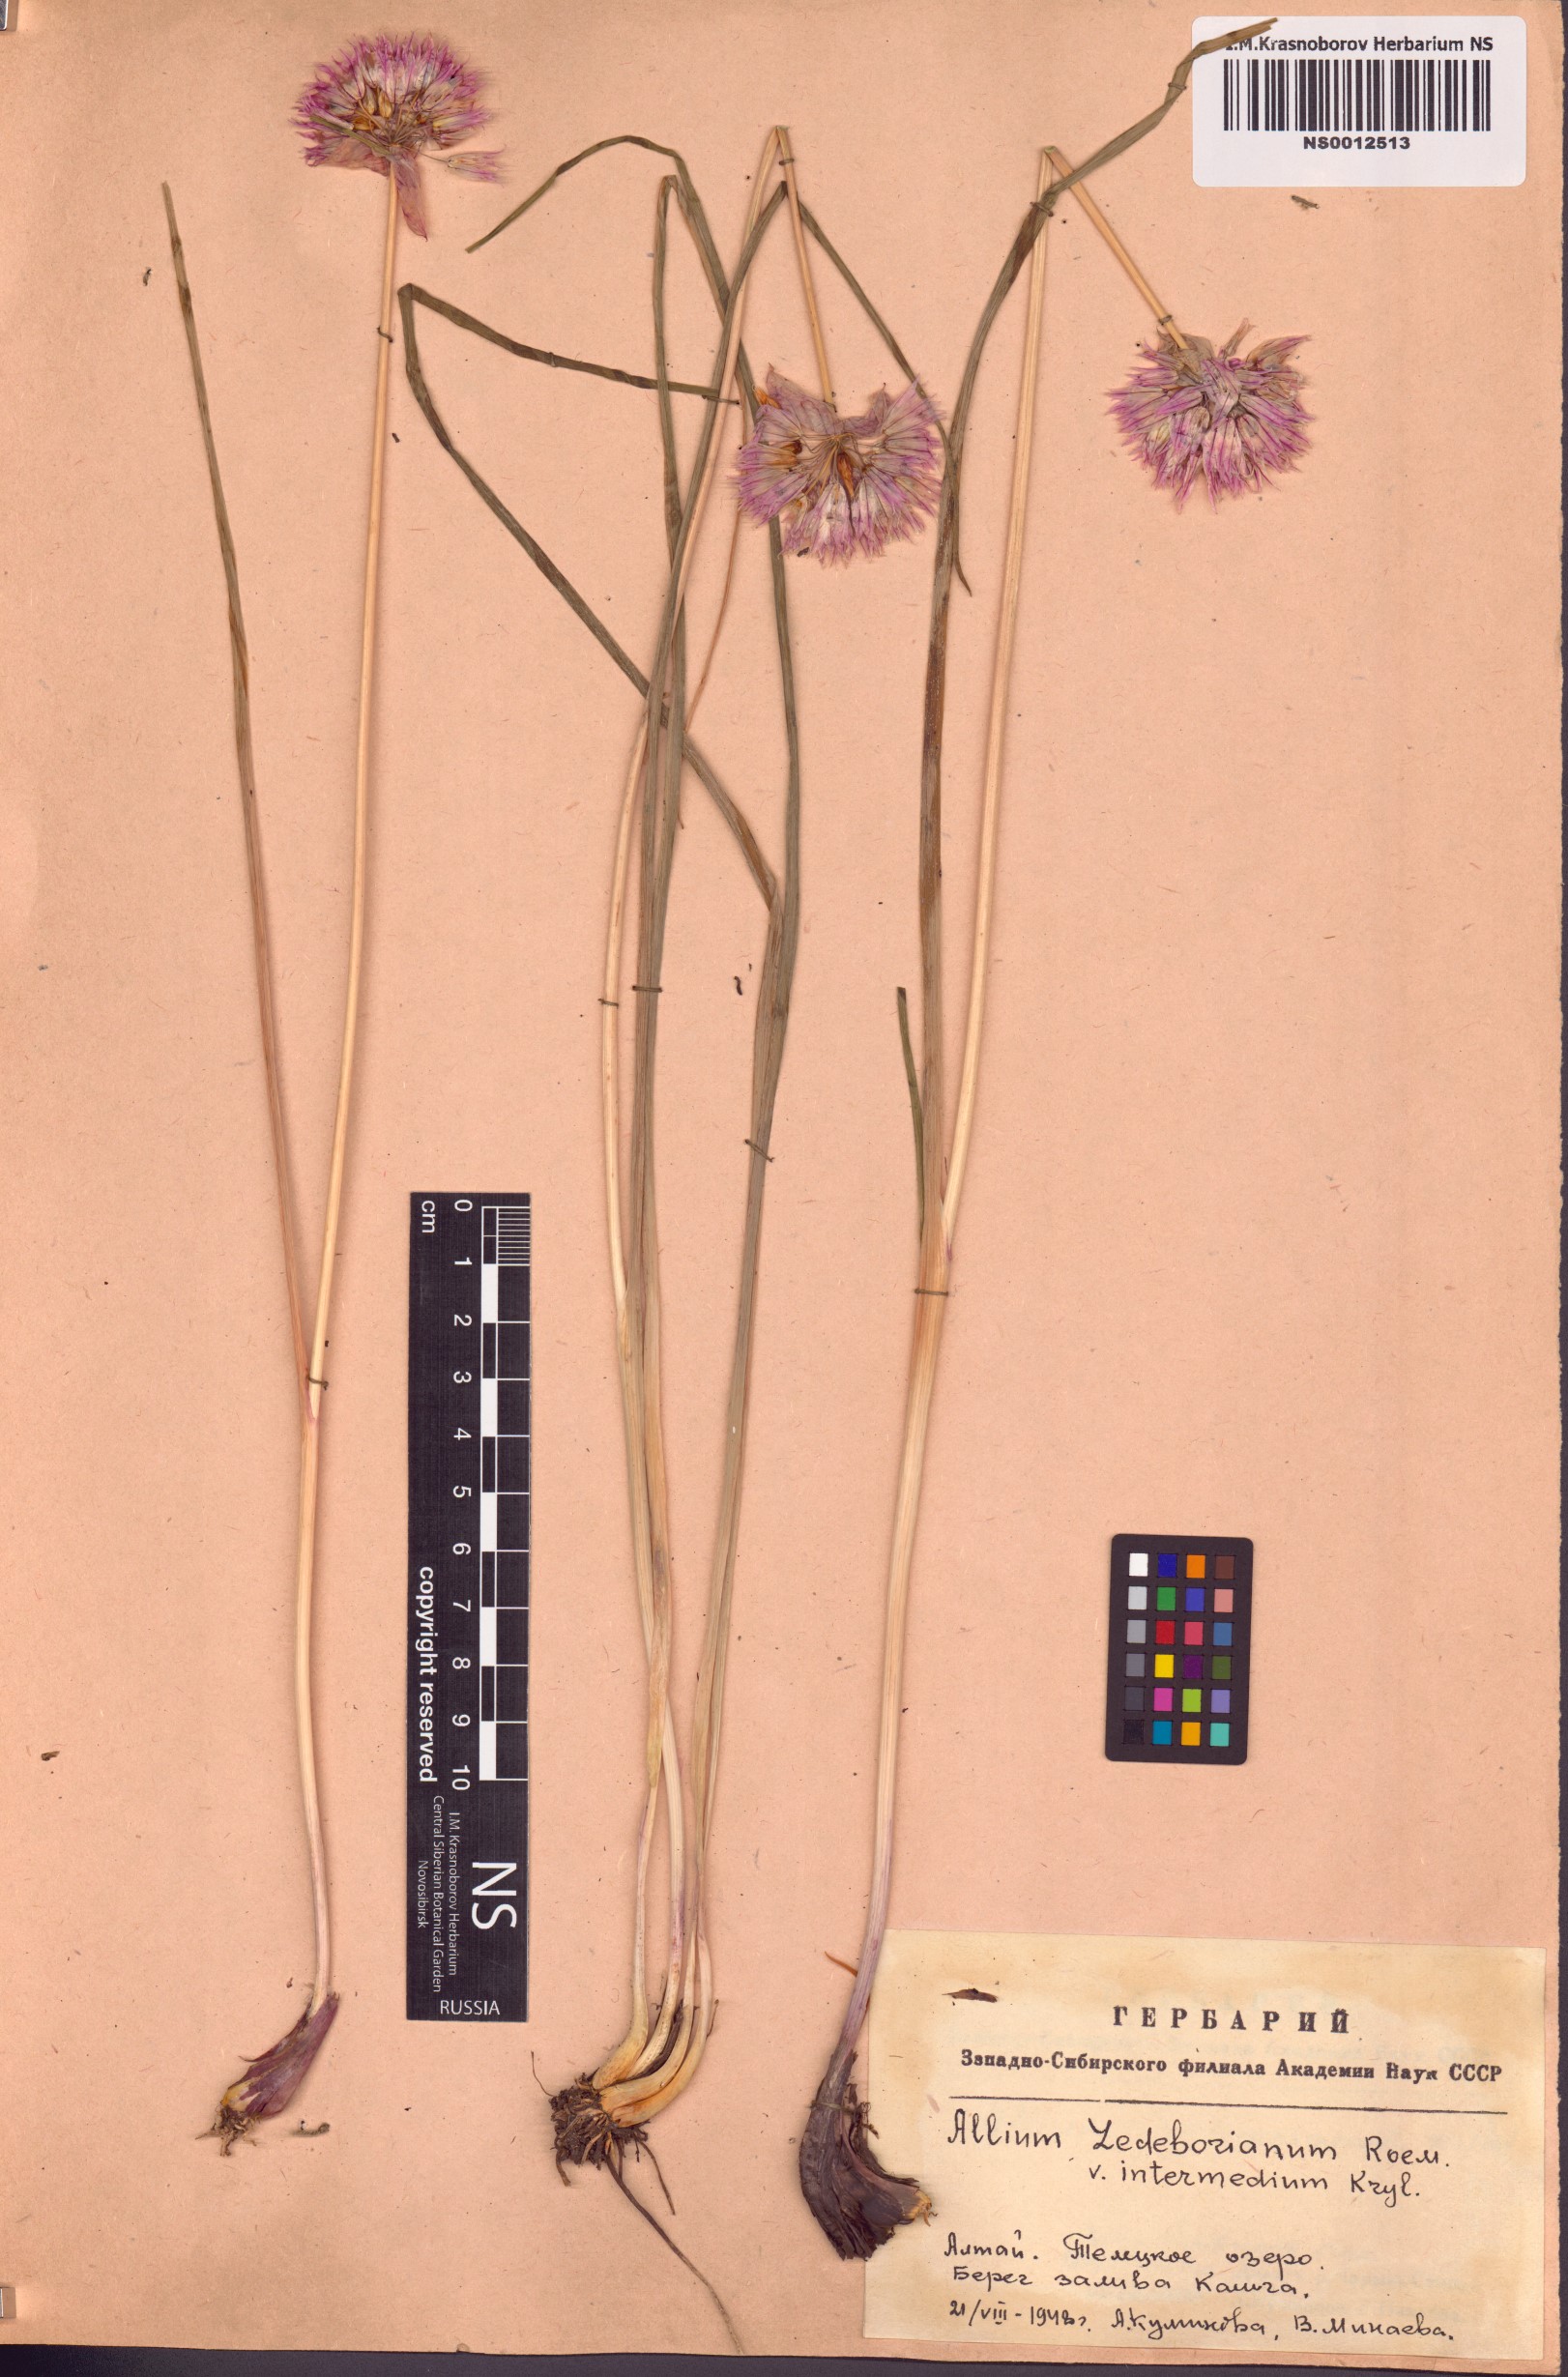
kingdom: Plantae
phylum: Tracheophyta
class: Liliopsida
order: Asparagales
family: Amaryllidaceae
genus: Allium
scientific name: Allium ledebourianum
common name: Ledebour chive
